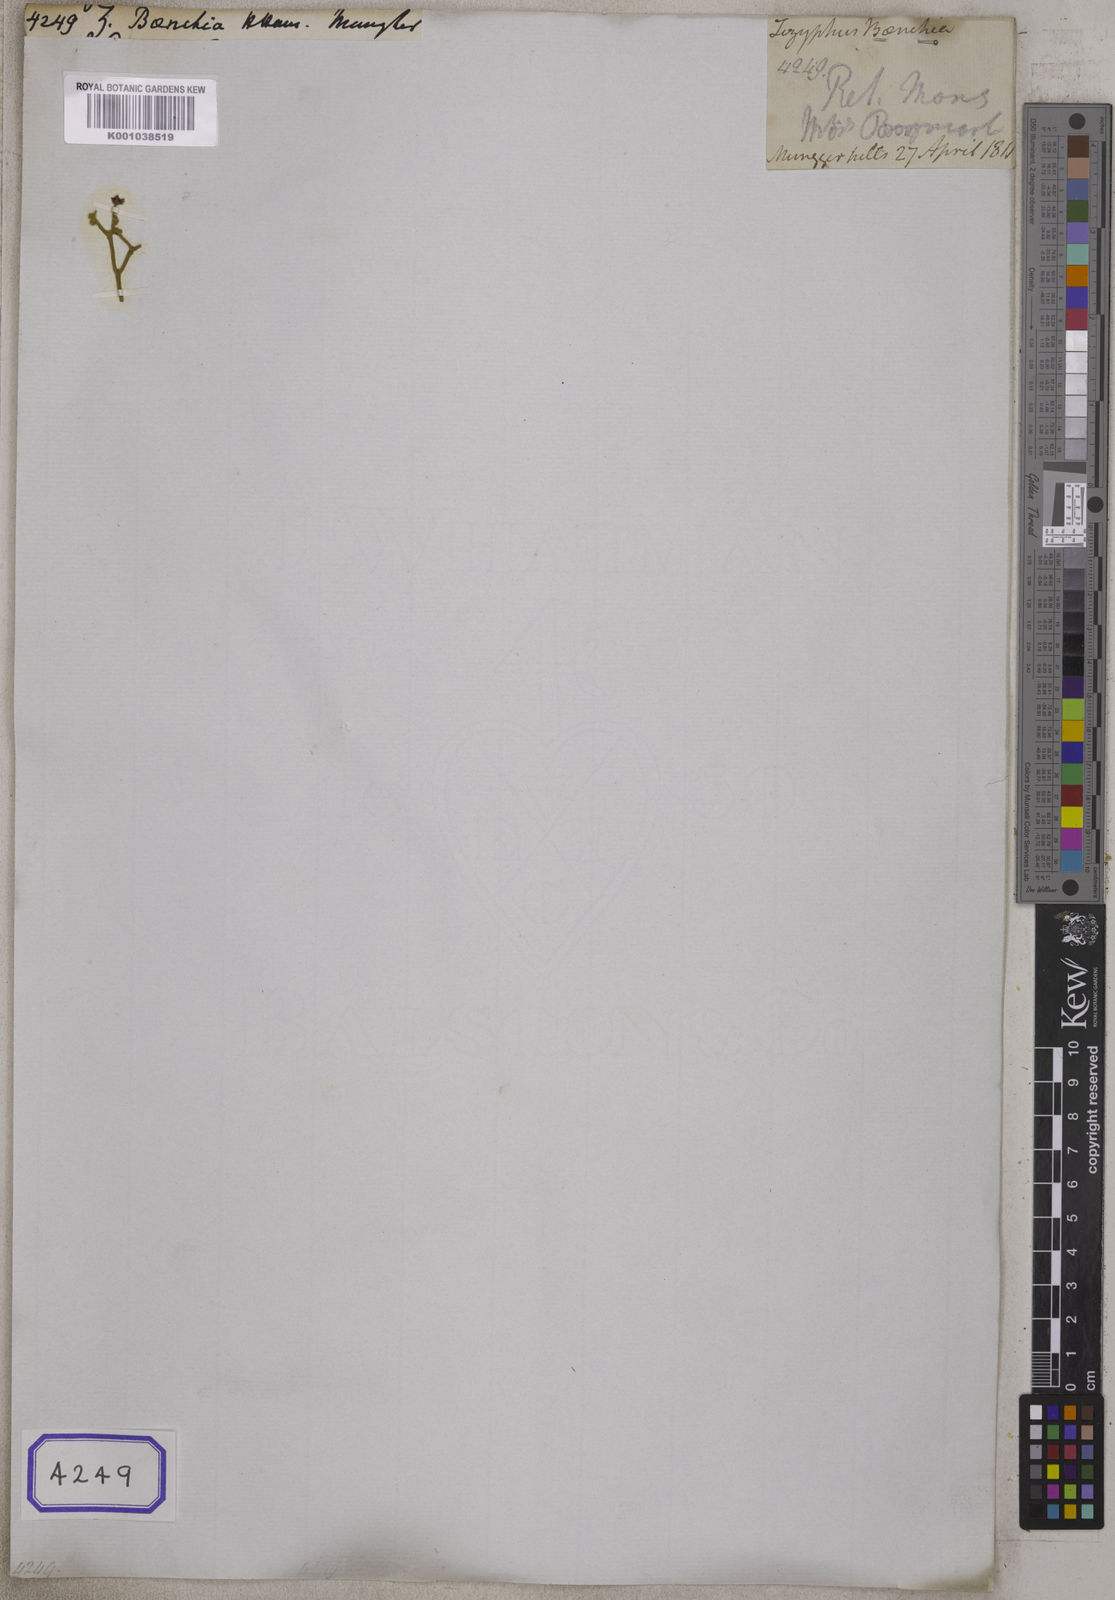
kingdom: Plantae
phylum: Tracheophyta
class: Magnoliopsida
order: Rosales
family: Rhamnaceae
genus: Ziziphus
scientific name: Ziziphus baenchia
